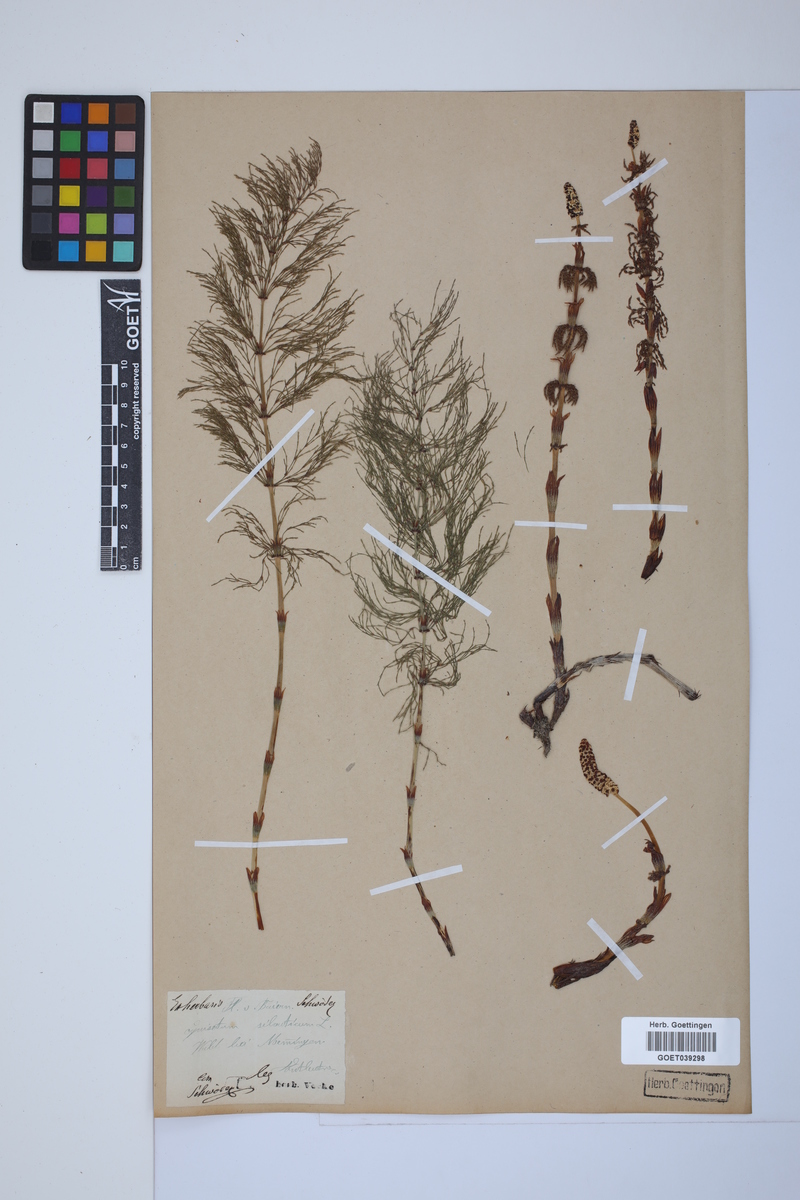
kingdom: Plantae
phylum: Tracheophyta
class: Polypodiopsida
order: Equisetales
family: Equisetaceae
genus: Equisetum
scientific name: Equisetum sylvaticum
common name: Wood horsetail
